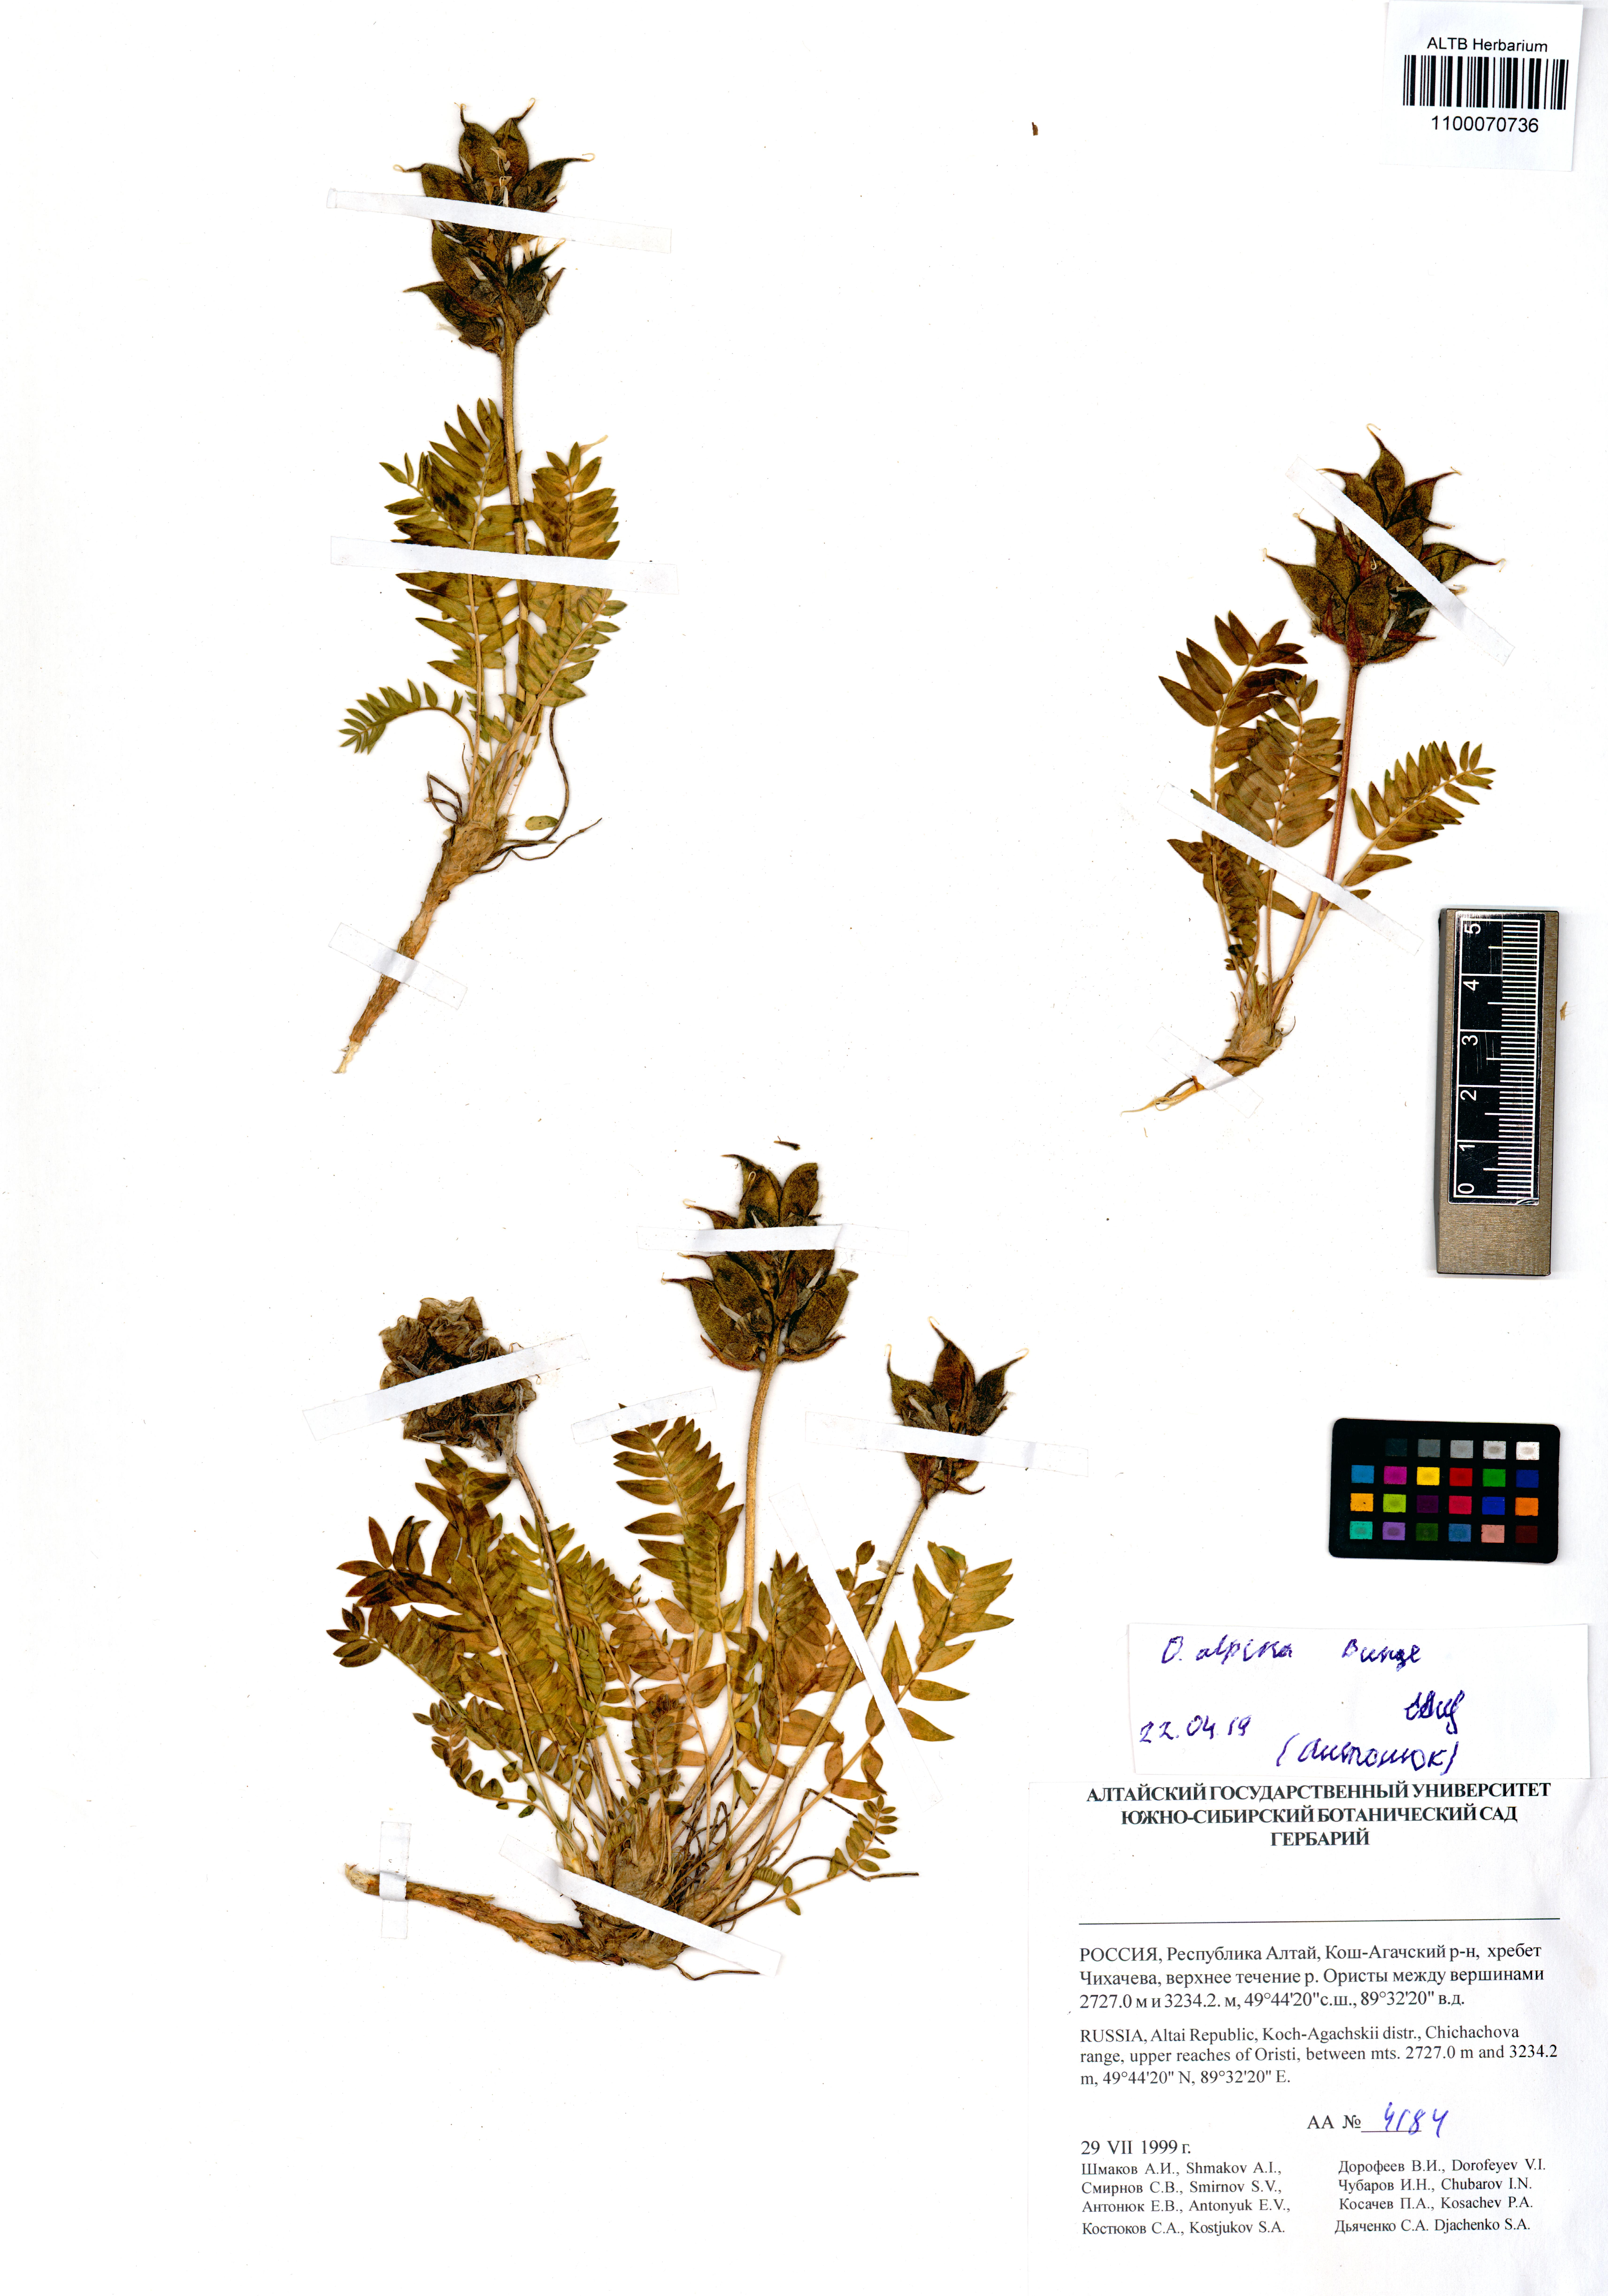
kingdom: Plantae
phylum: Tracheophyta
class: Magnoliopsida
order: Fabales
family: Fabaceae
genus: Oxytropis
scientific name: Oxytropis alpina
